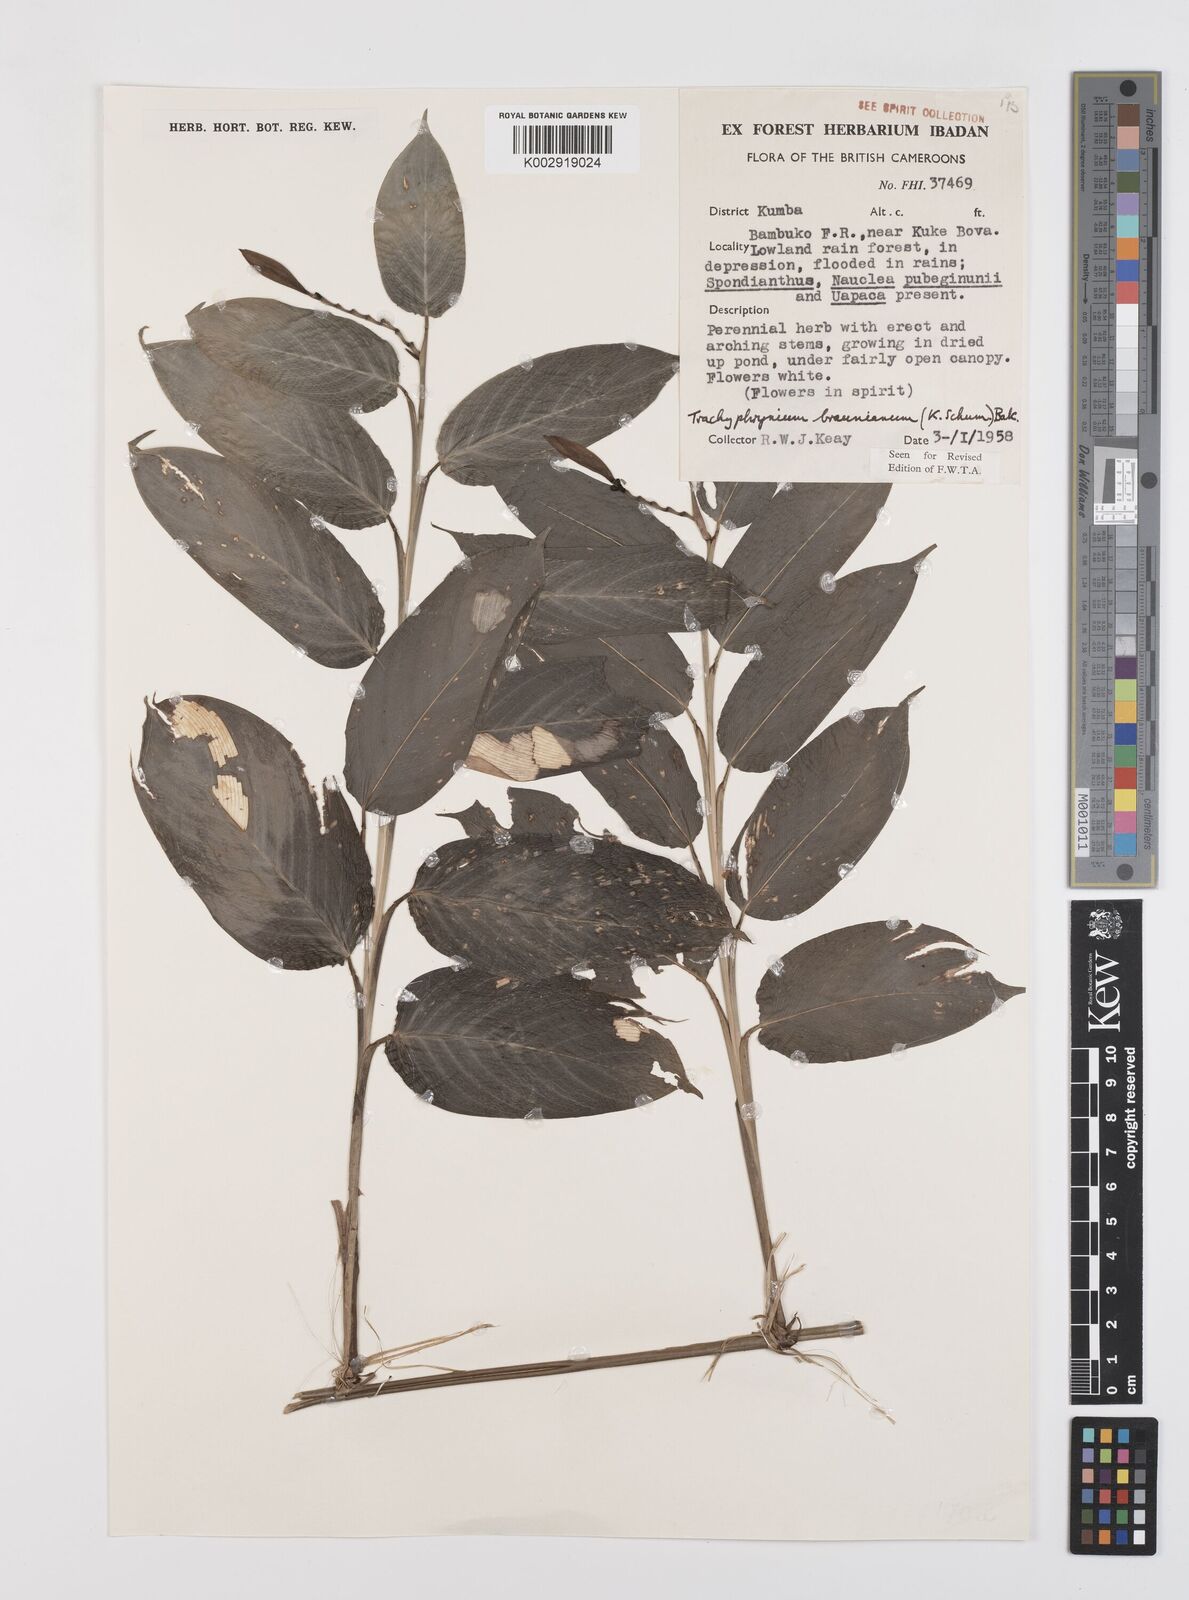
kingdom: Plantae
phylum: Tracheophyta
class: Liliopsida
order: Zingiberales
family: Marantaceae
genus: Trachyphrynium
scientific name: Trachyphrynium braunianum
